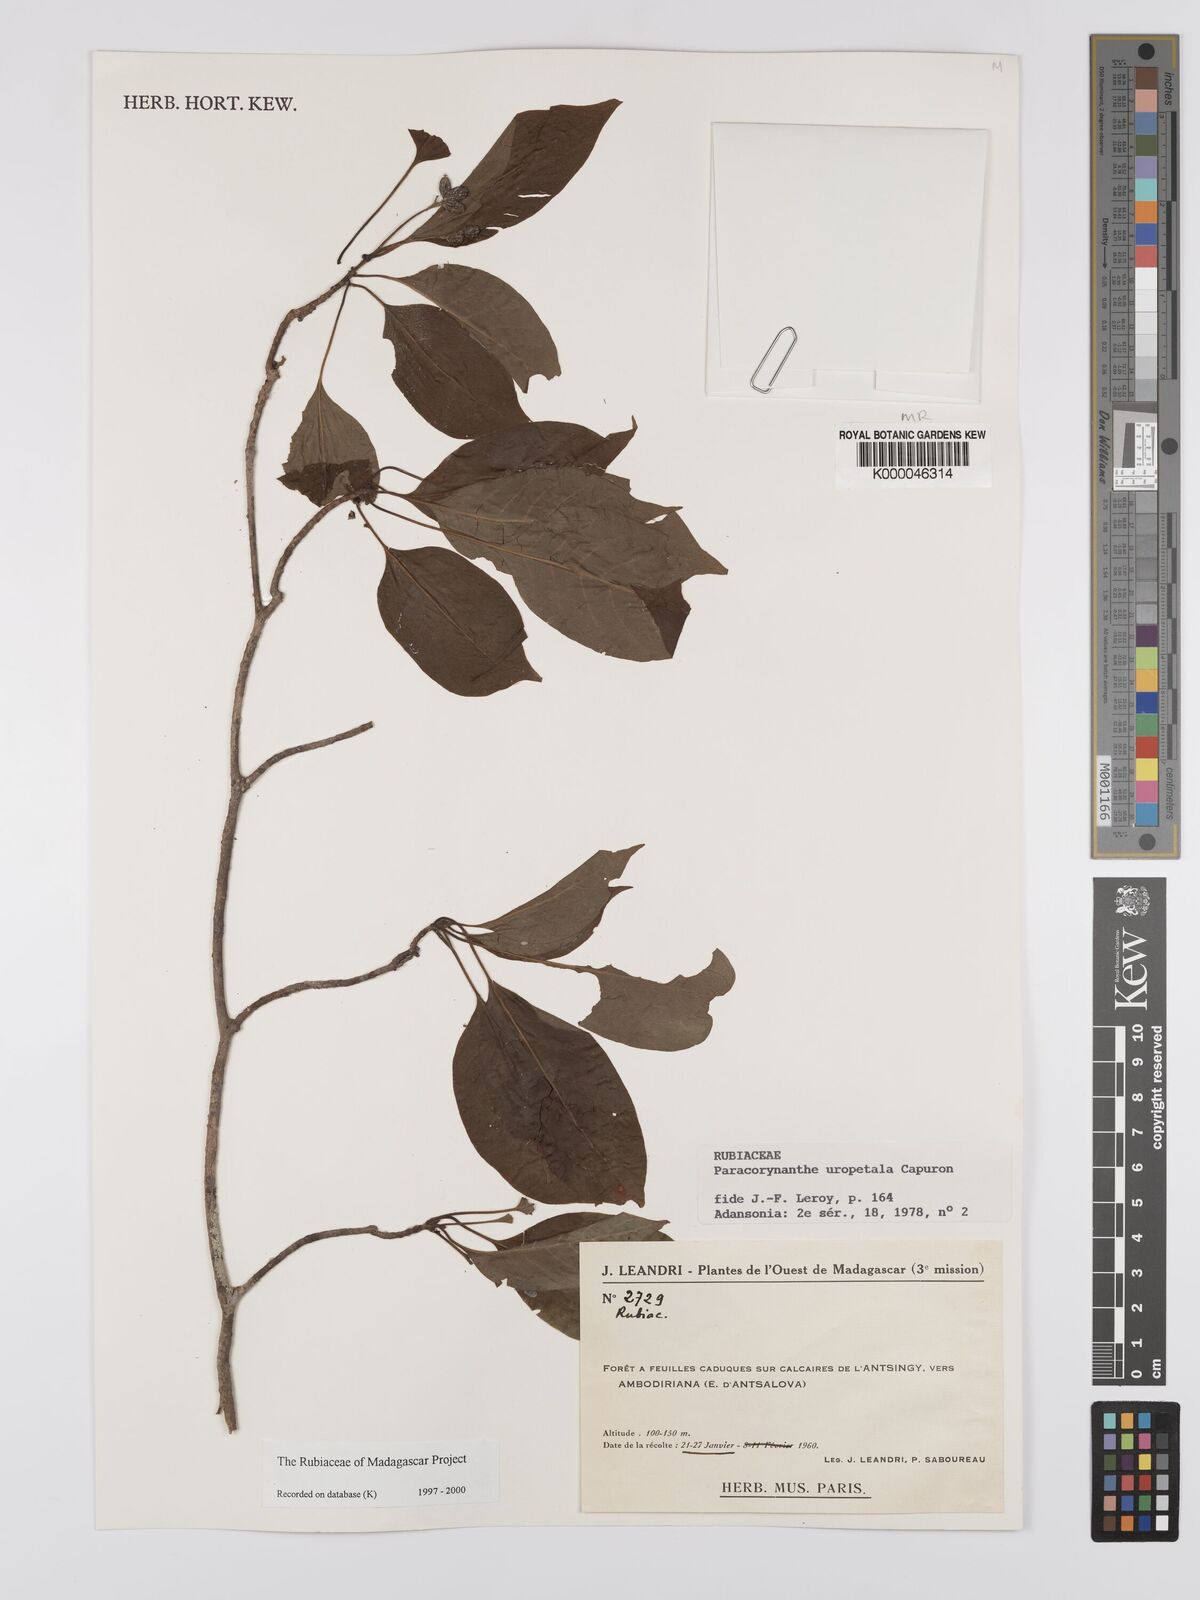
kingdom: Plantae
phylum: Tracheophyta
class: Magnoliopsida
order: Gentianales
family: Rubiaceae
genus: Paracorynanthe
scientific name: Paracorynanthe uropetala
